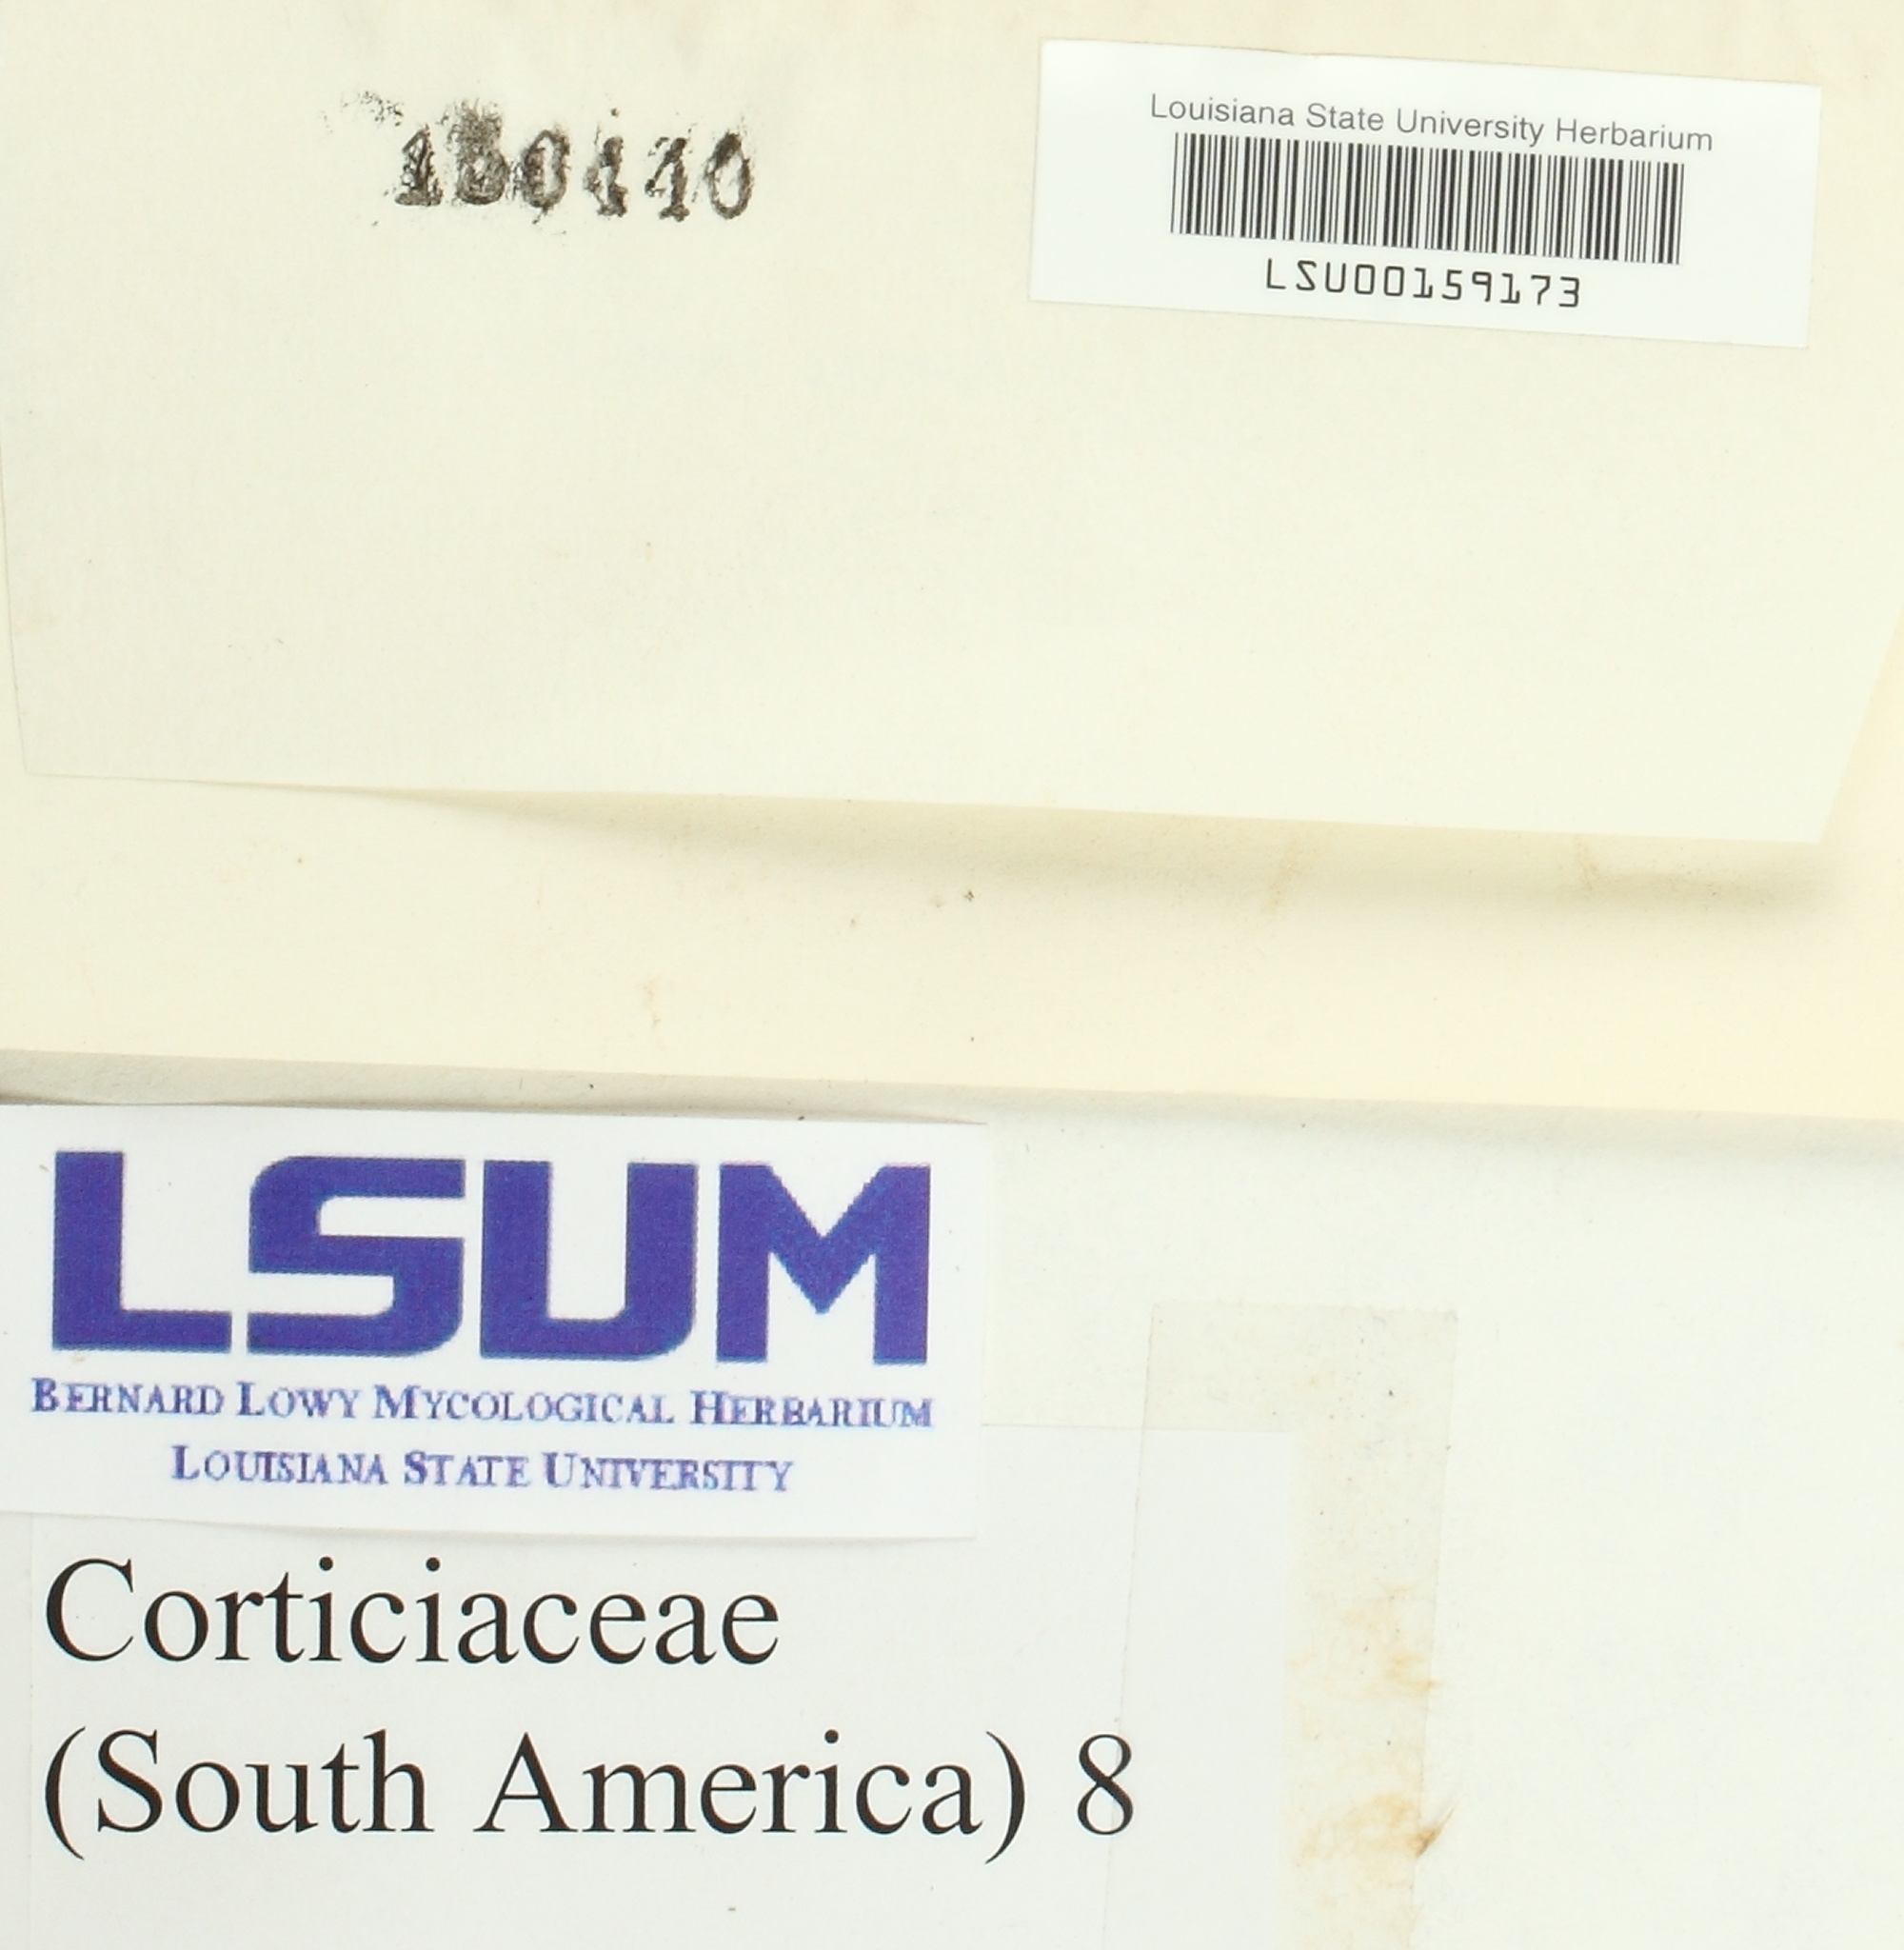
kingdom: Fungi
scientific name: Fungi
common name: Fungi
